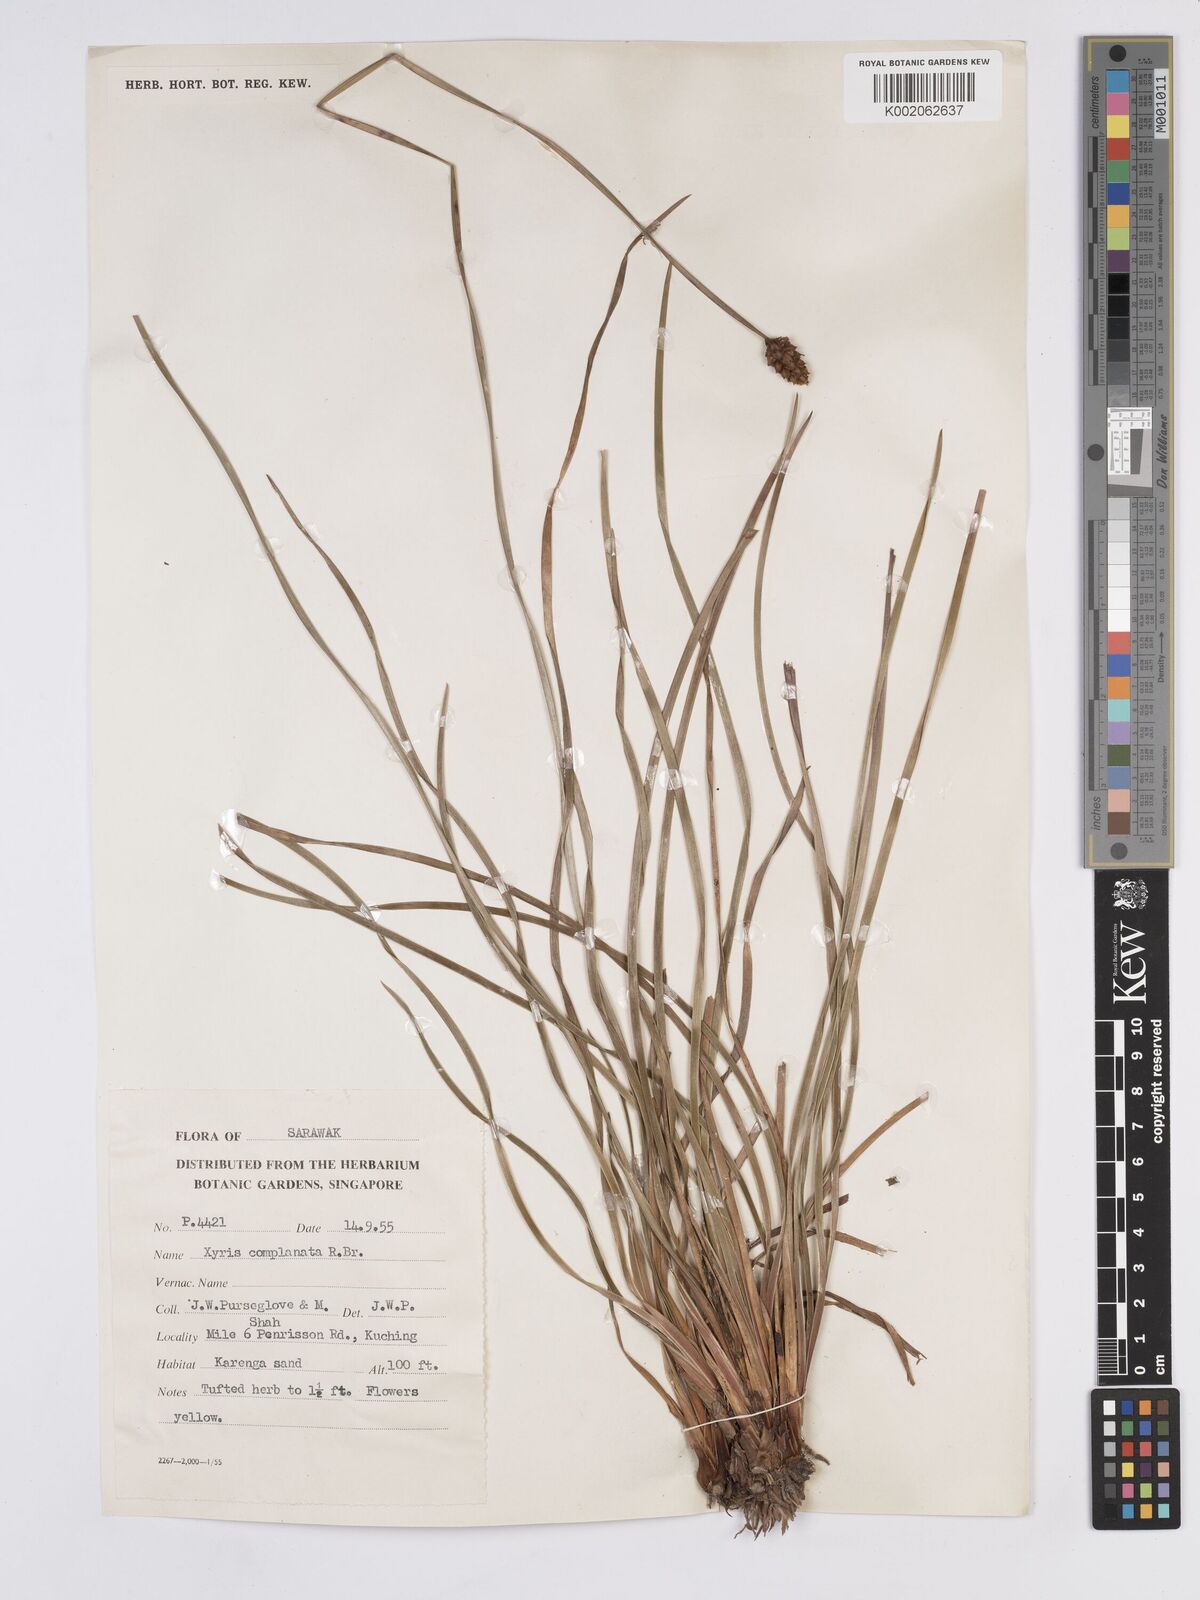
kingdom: Plantae
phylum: Tracheophyta
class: Liliopsida
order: Poales
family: Xyridaceae
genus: Xyris
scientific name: Xyris complanata
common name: Hawai'i yelloweyed grass
